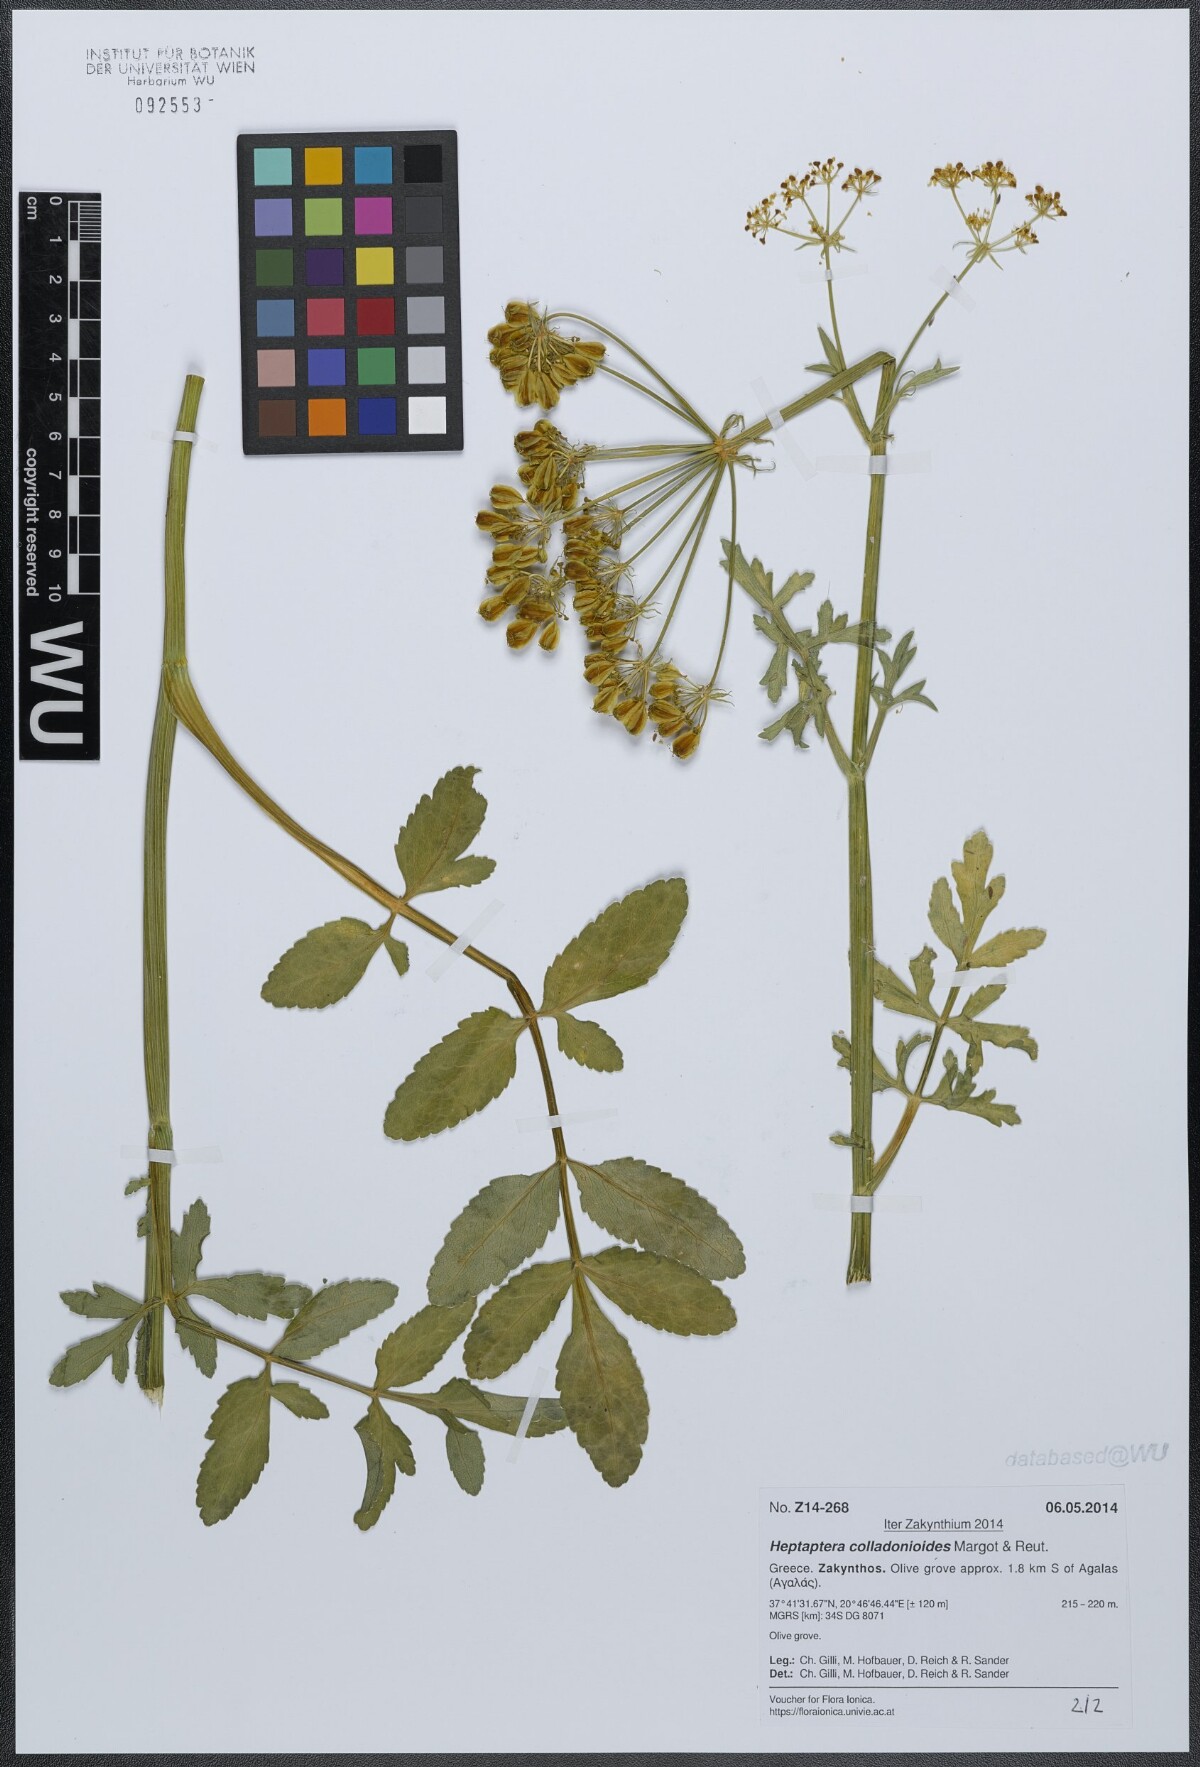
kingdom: Plantae
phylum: Tracheophyta
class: Magnoliopsida
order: Apiales
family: Apiaceae
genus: Heptaptera
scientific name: Heptaptera colladonioides
